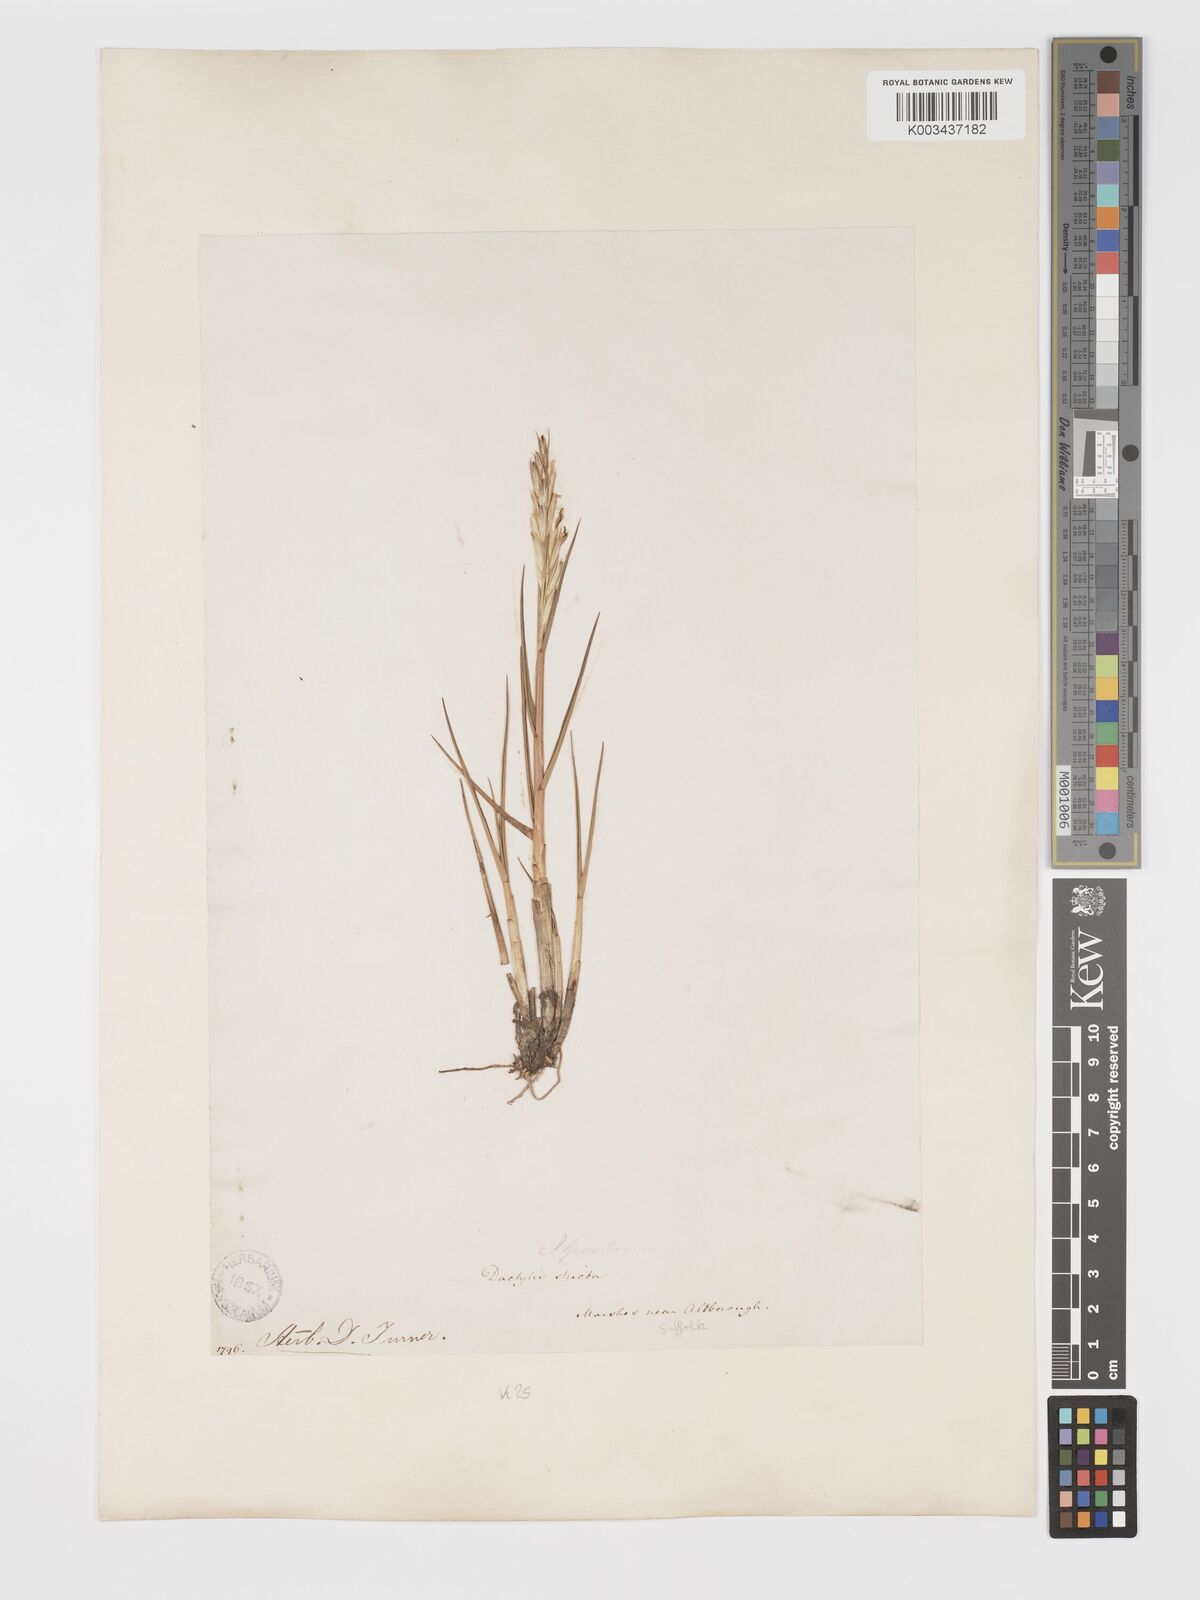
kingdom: Plantae
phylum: Tracheophyta
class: Liliopsida
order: Poales
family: Poaceae
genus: Sporobolus
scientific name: Sporobolus maritimus
